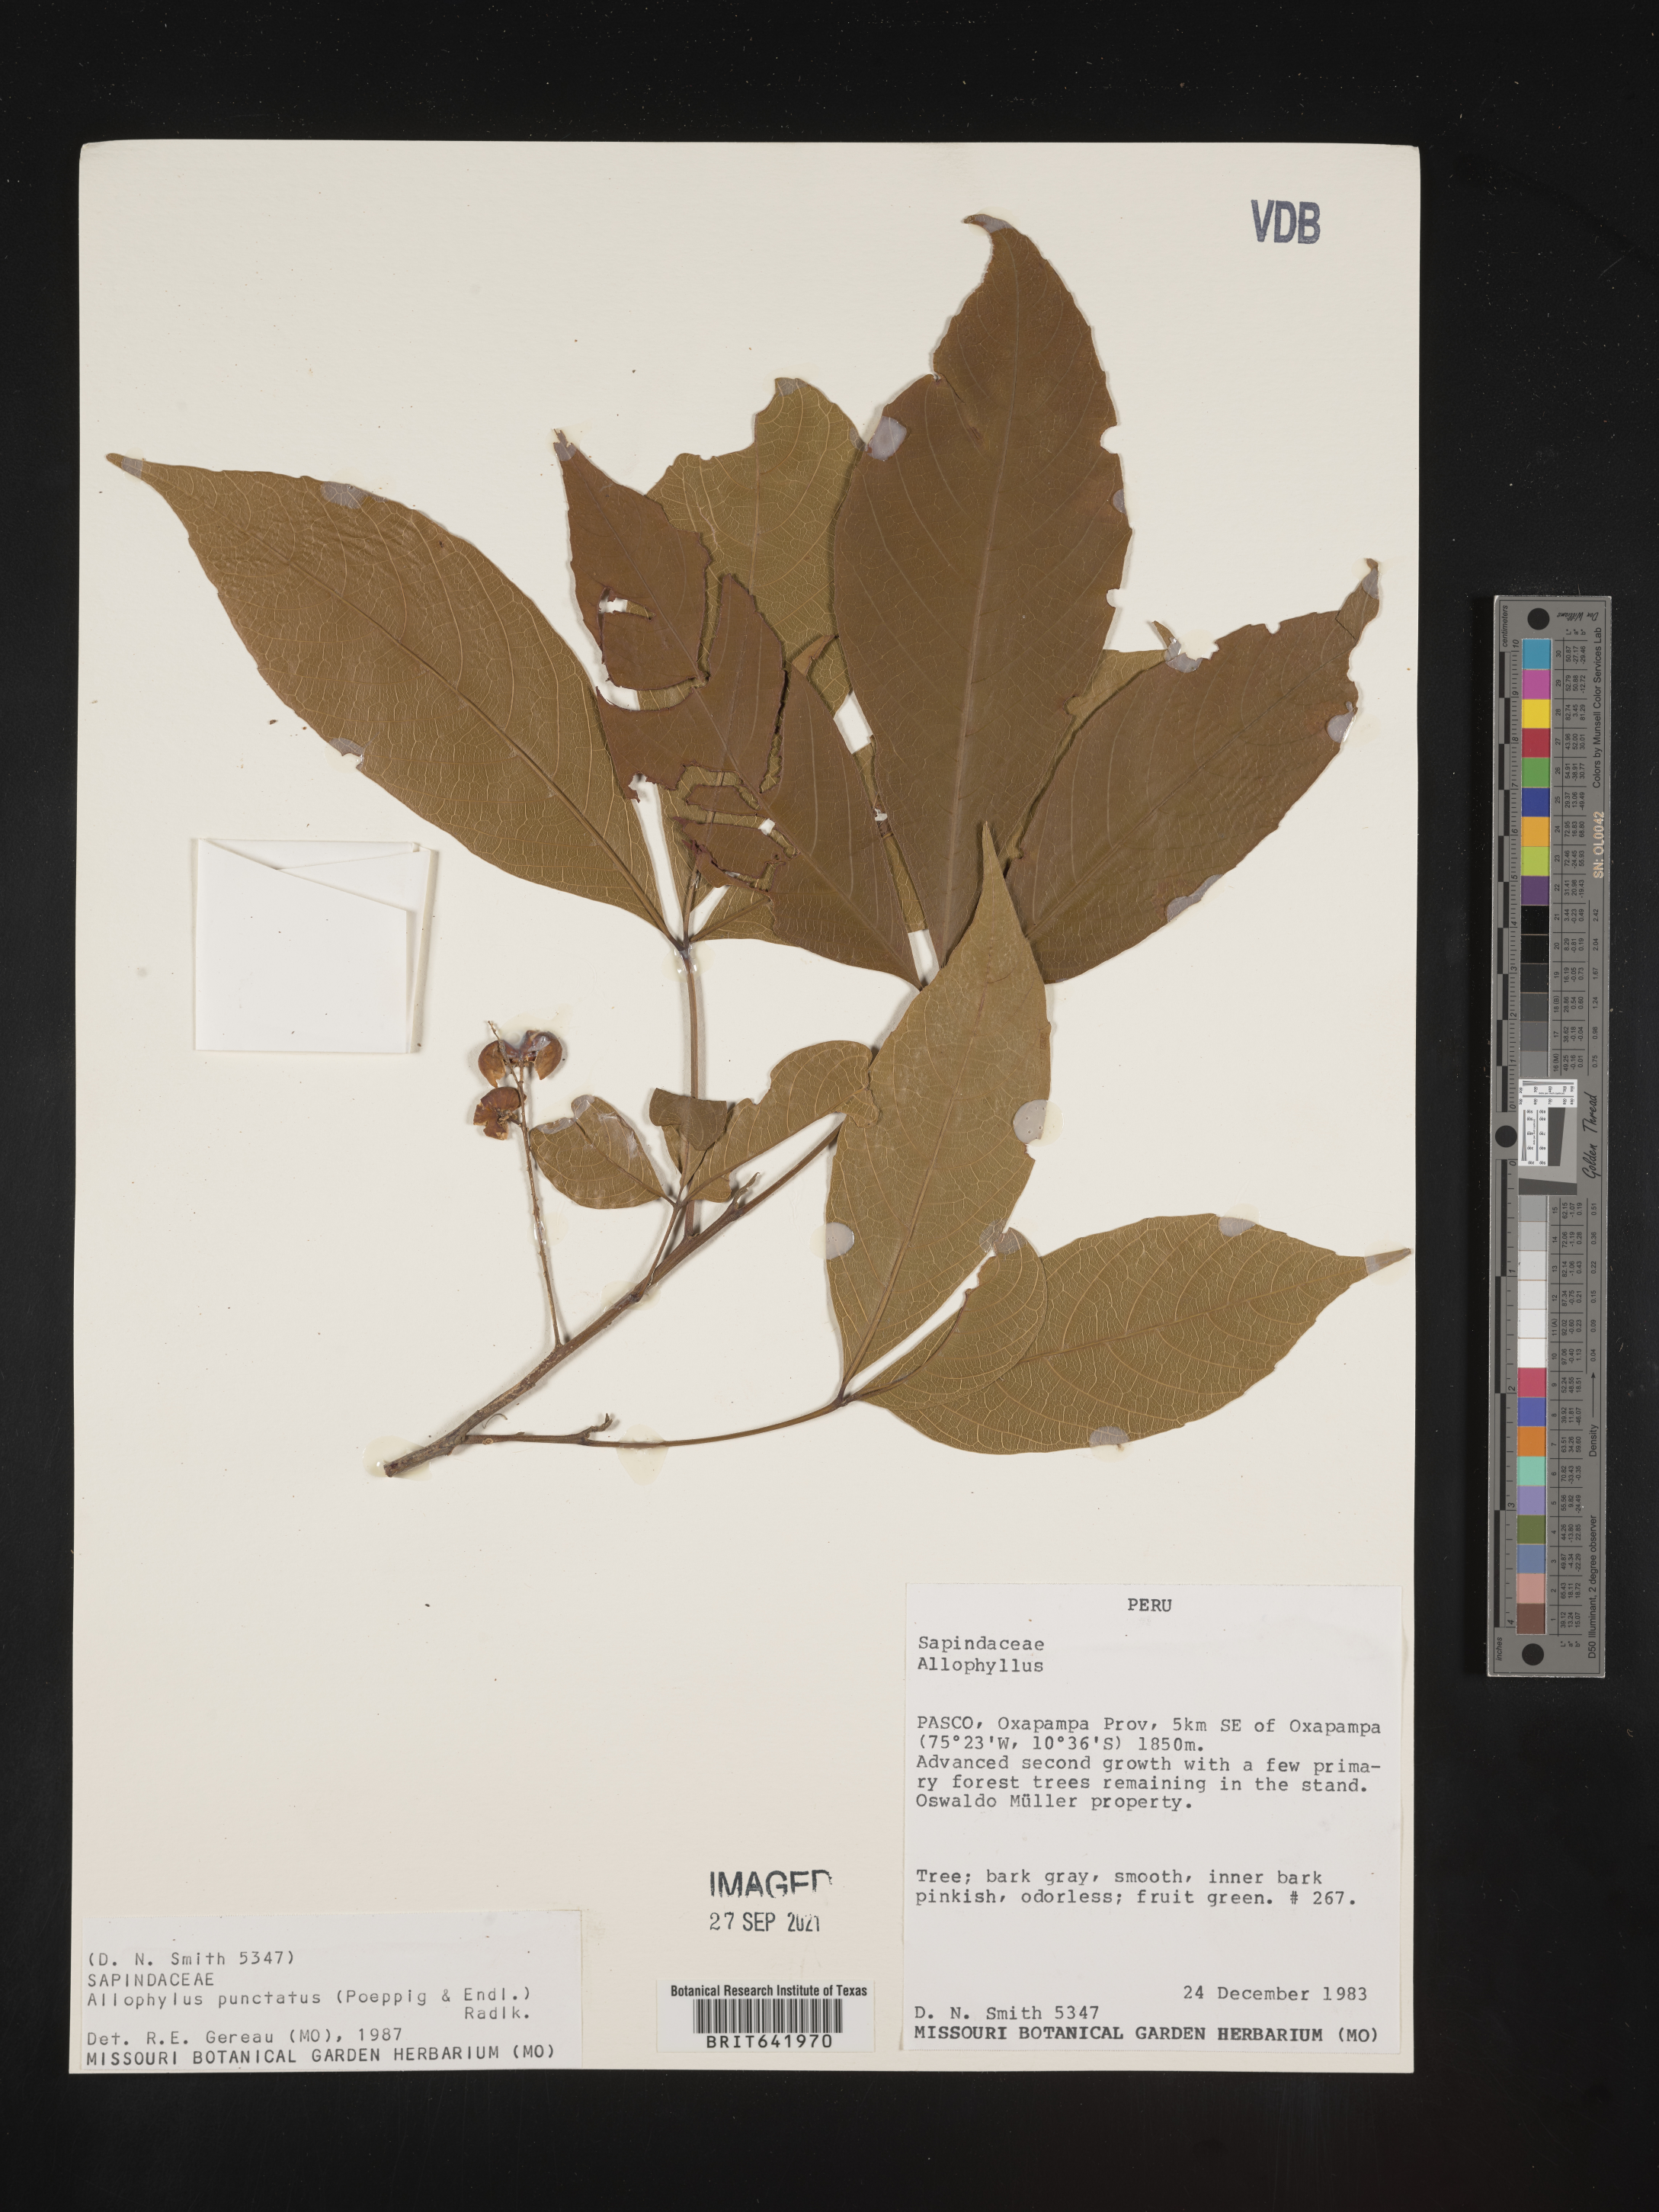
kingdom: Plantae
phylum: Tracheophyta
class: Magnoliopsida
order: Sapindales
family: Sapindaceae
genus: Allophylus
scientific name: Allophylus
